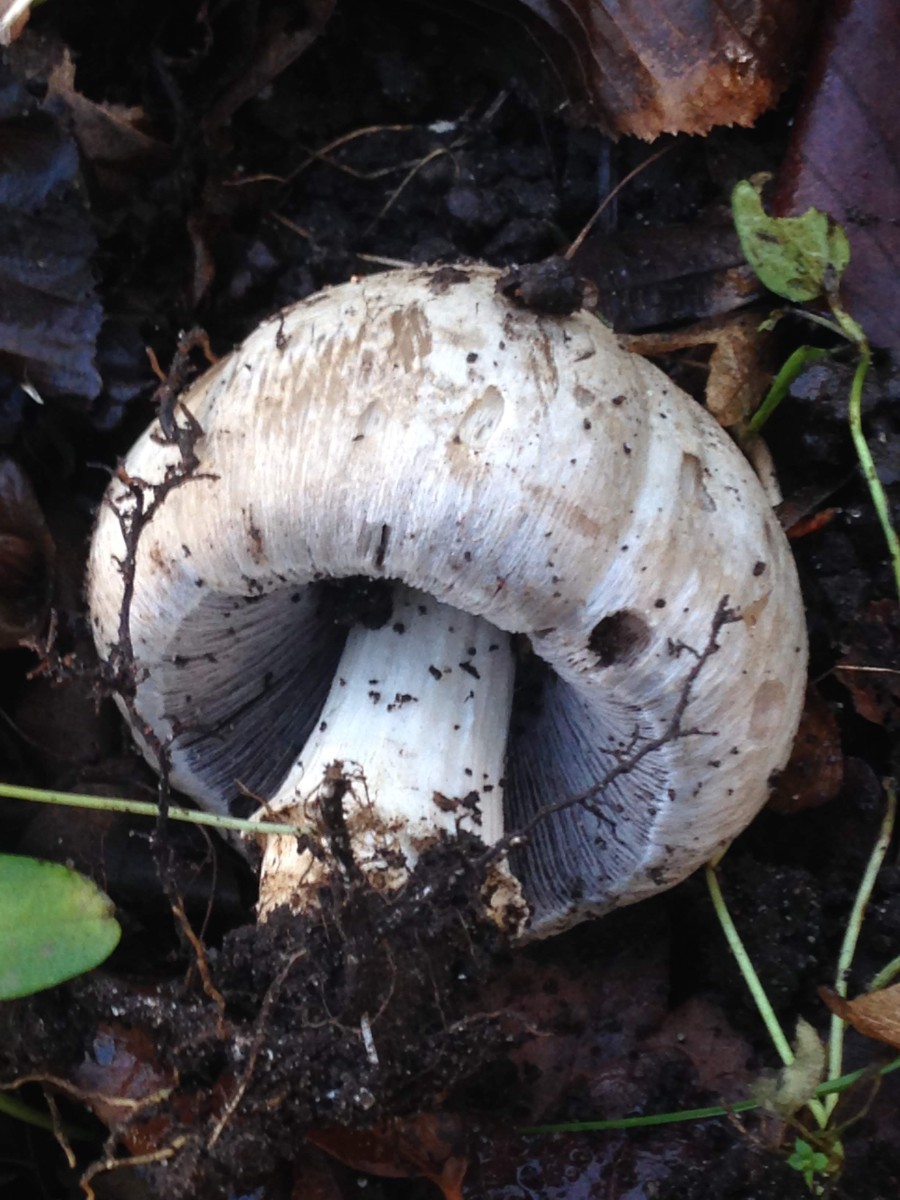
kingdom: Fungi
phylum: Basidiomycota
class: Agaricomycetes
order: Agaricales
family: Psathyrellaceae
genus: Coprinopsis
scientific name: Coprinopsis atramentaria
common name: almindelig blækhat
